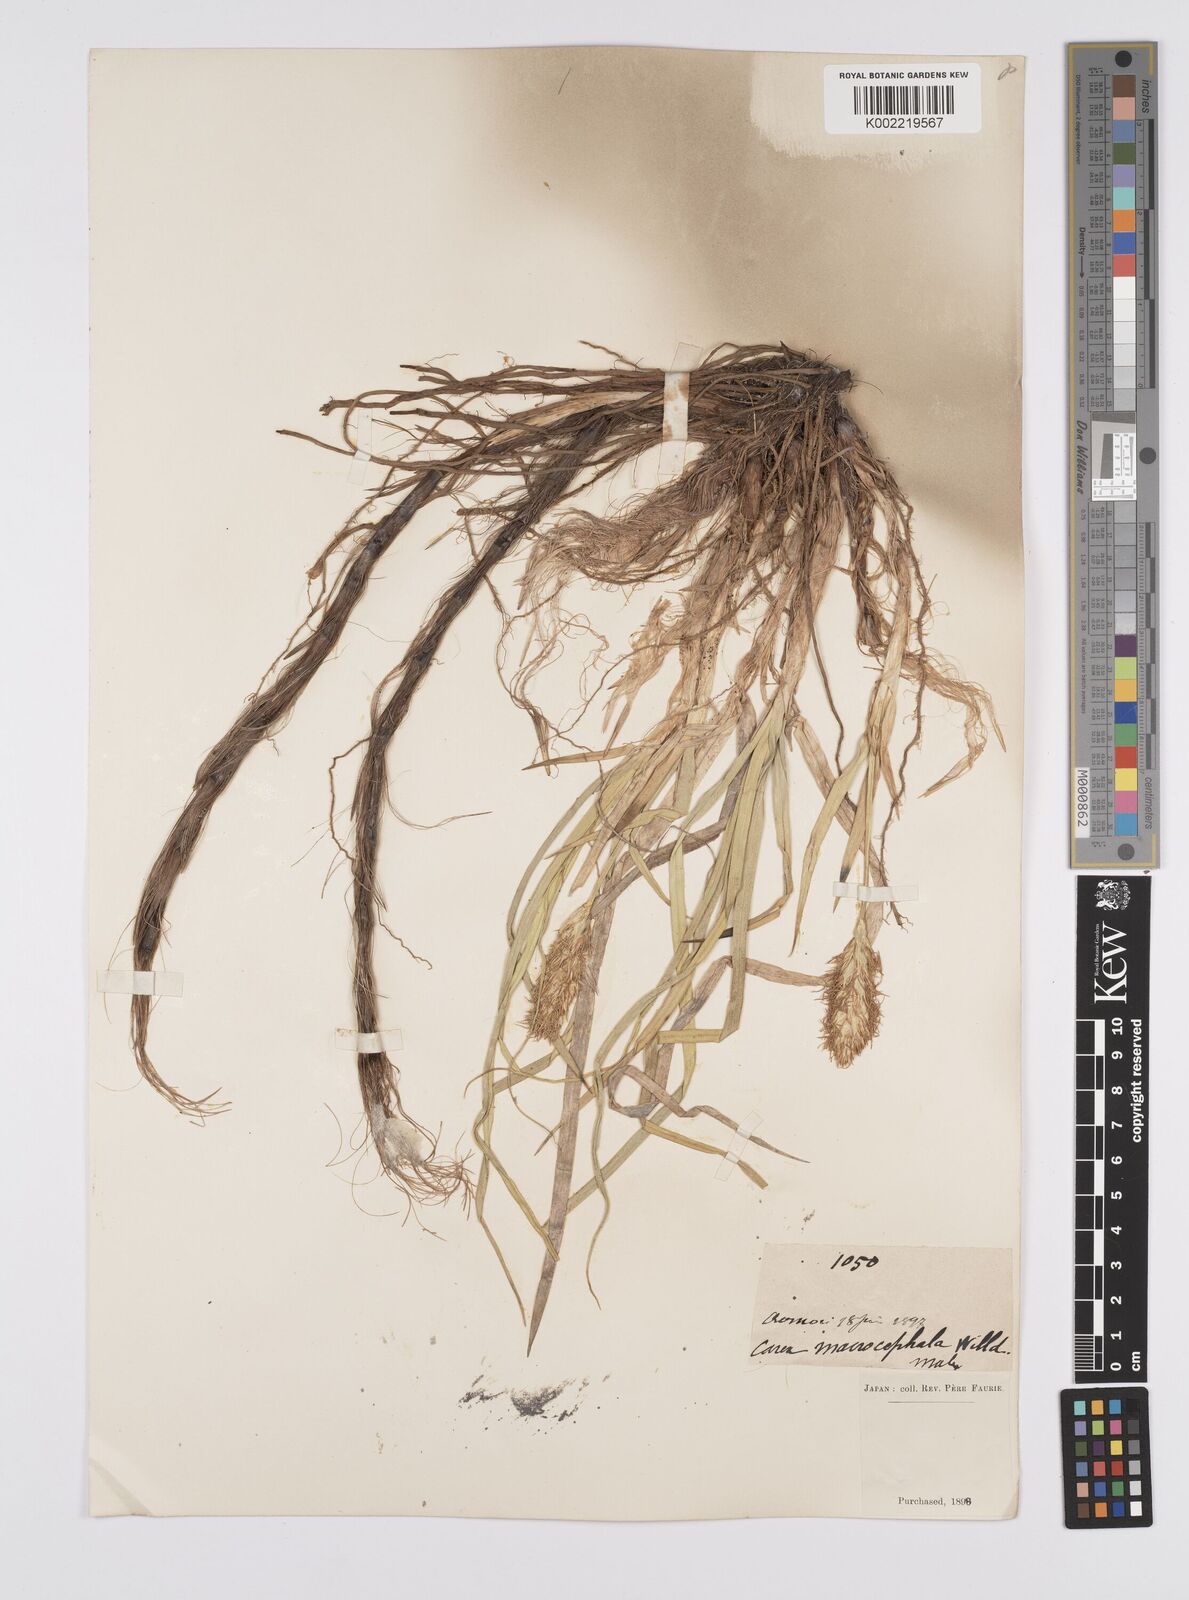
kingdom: Plantae
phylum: Tracheophyta
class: Liliopsida
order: Poales
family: Cyperaceae
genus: Carex
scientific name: Carex macrocephala
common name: Large-head sedge
